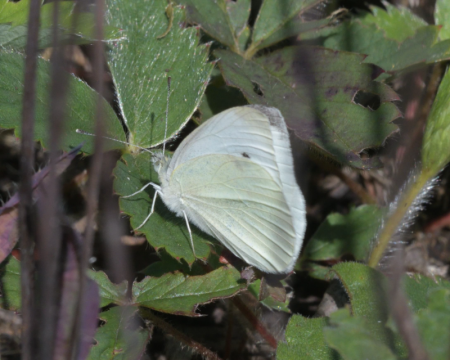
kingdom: Animalia
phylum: Arthropoda
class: Insecta
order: Lepidoptera
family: Pieridae
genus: Pieris
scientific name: Pieris rapae
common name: Cabbage White
